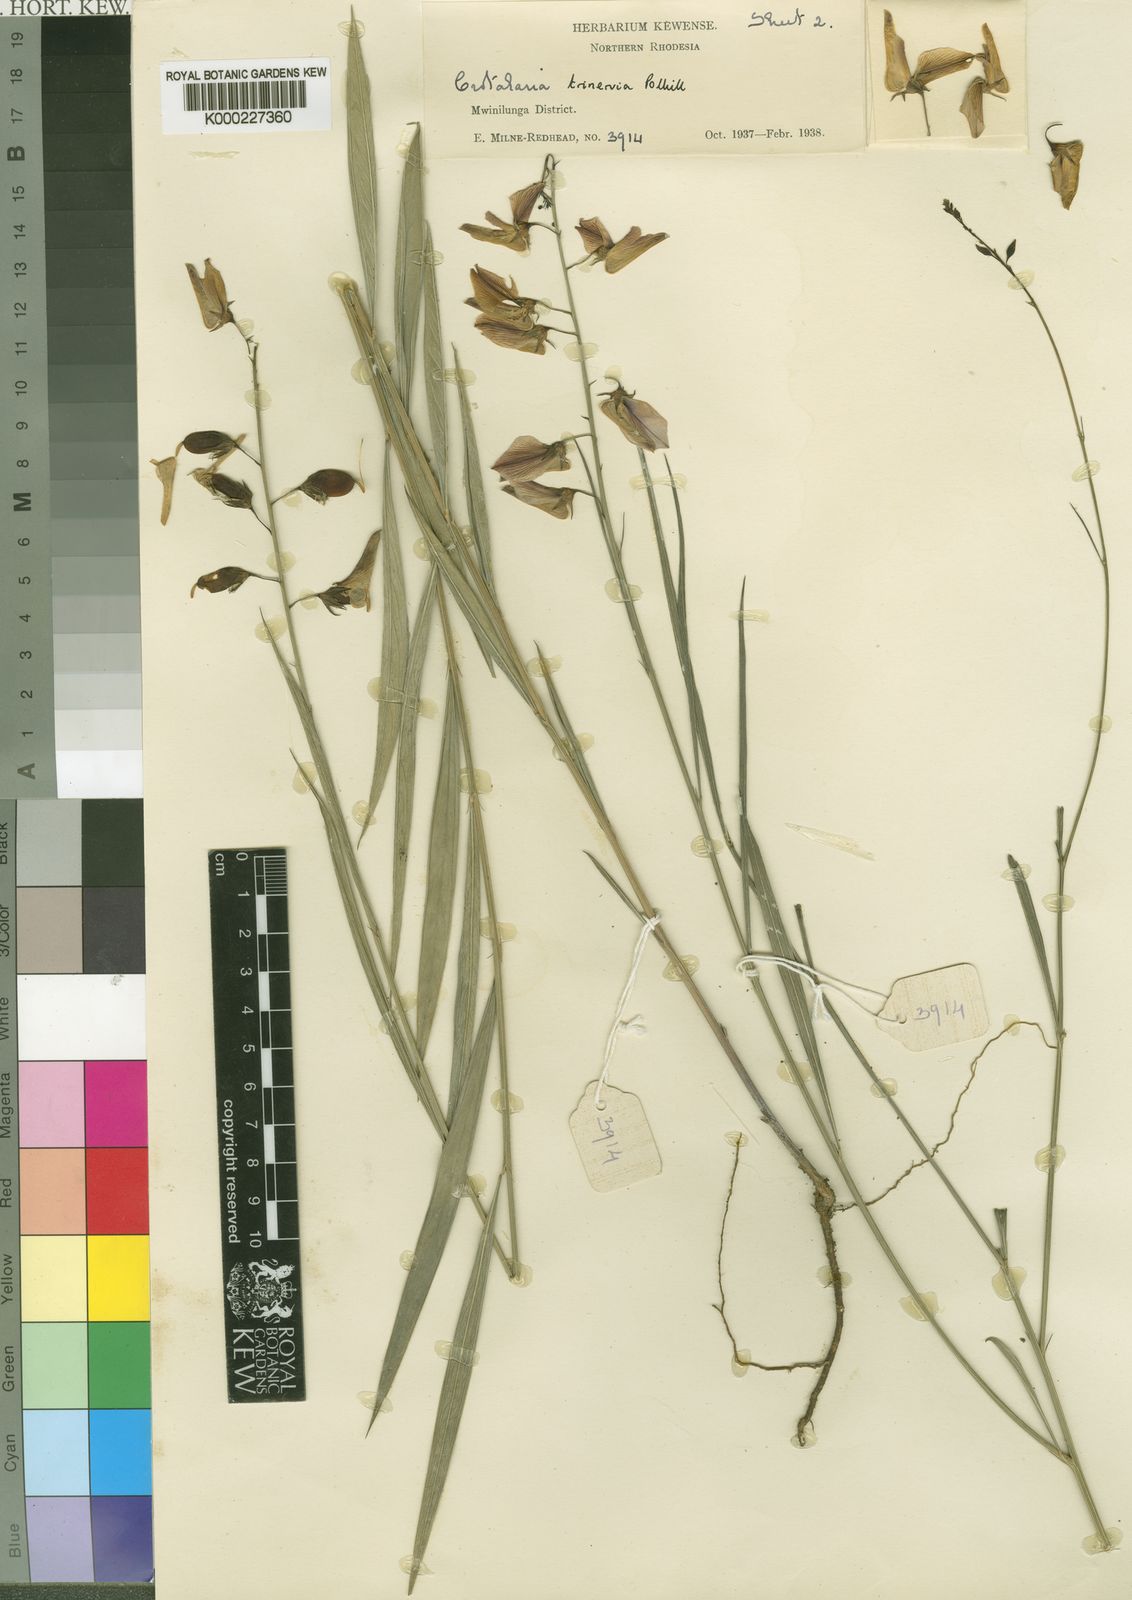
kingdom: Plantae
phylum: Tracheophyta
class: Magnoliopsida
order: Fabales
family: Fabaceae
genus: Crotalaria
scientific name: Crotalaria trinervia
